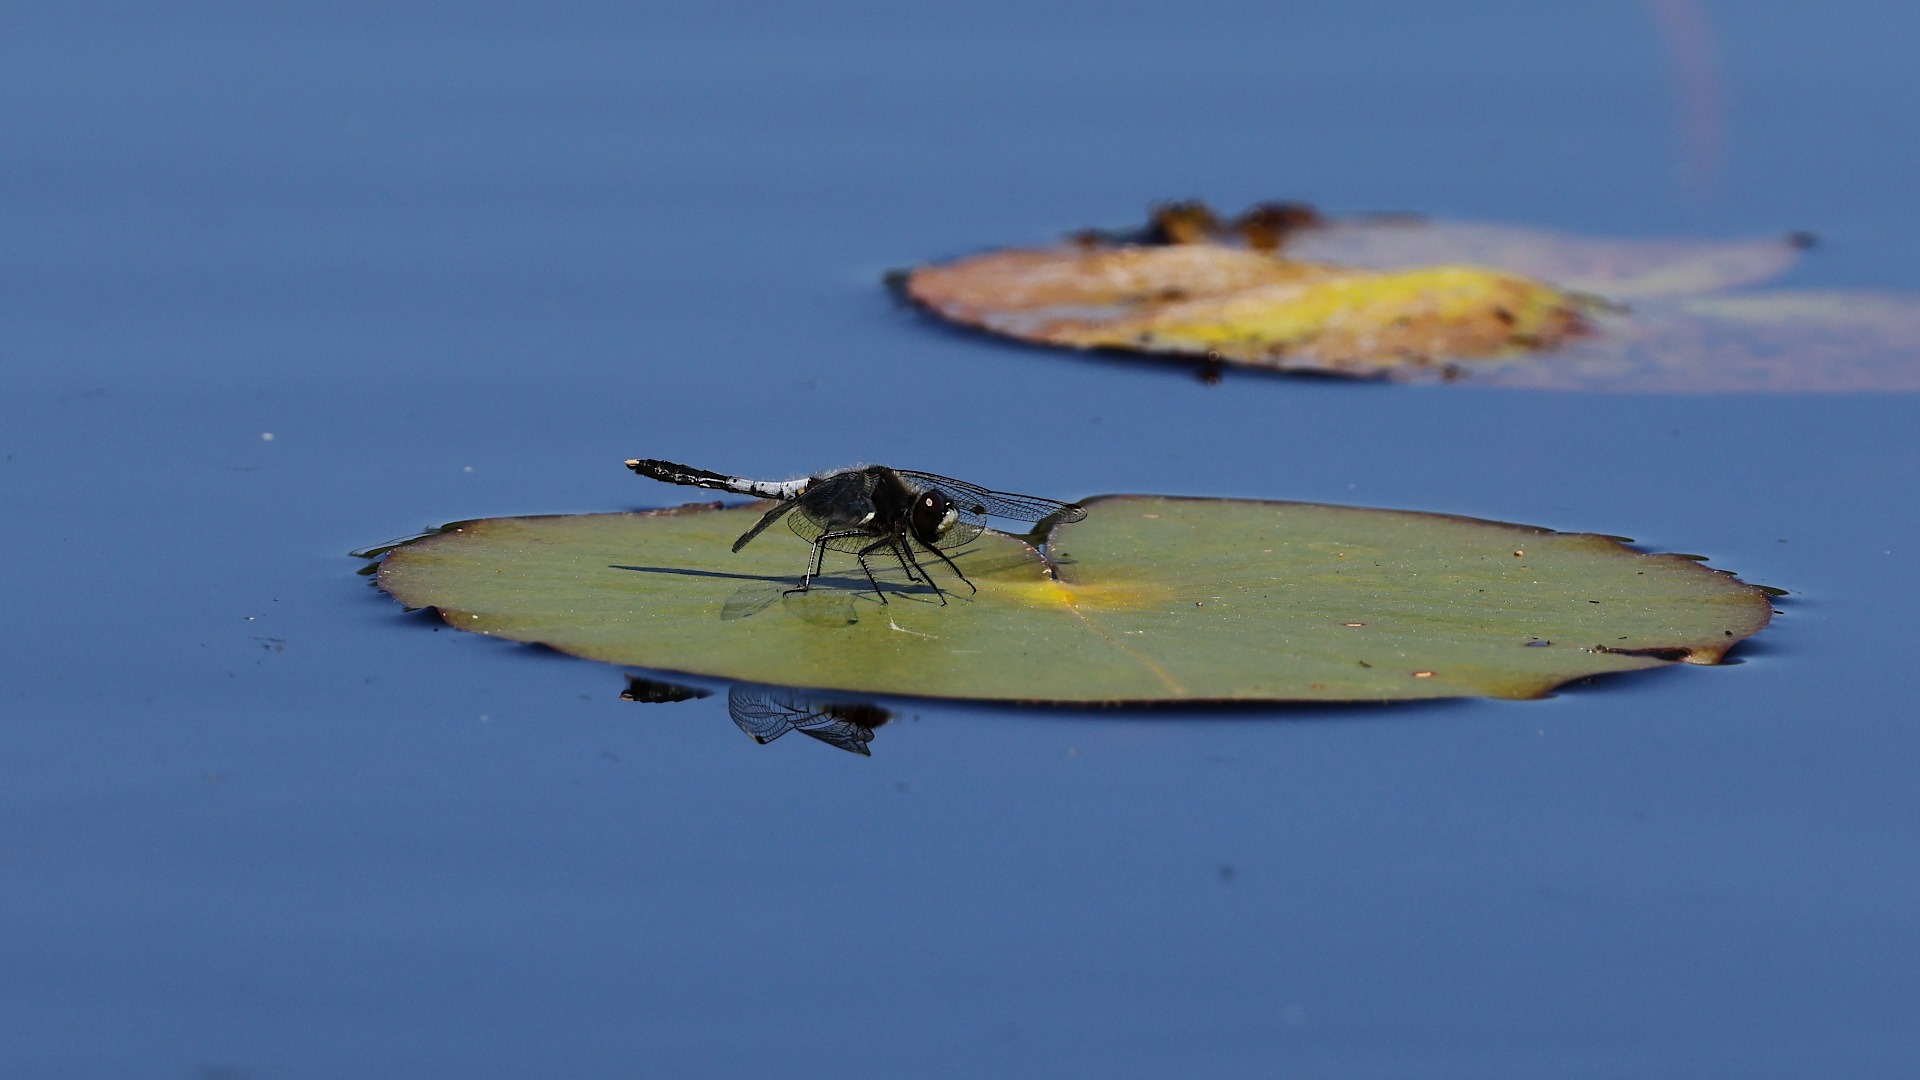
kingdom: Animalia
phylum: Arthropoda
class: Insecta
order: Odonata
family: Libellulidae
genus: Leucorrhinia
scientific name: Leucorrhinia caudalis
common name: Åkande-kærguldsmed
